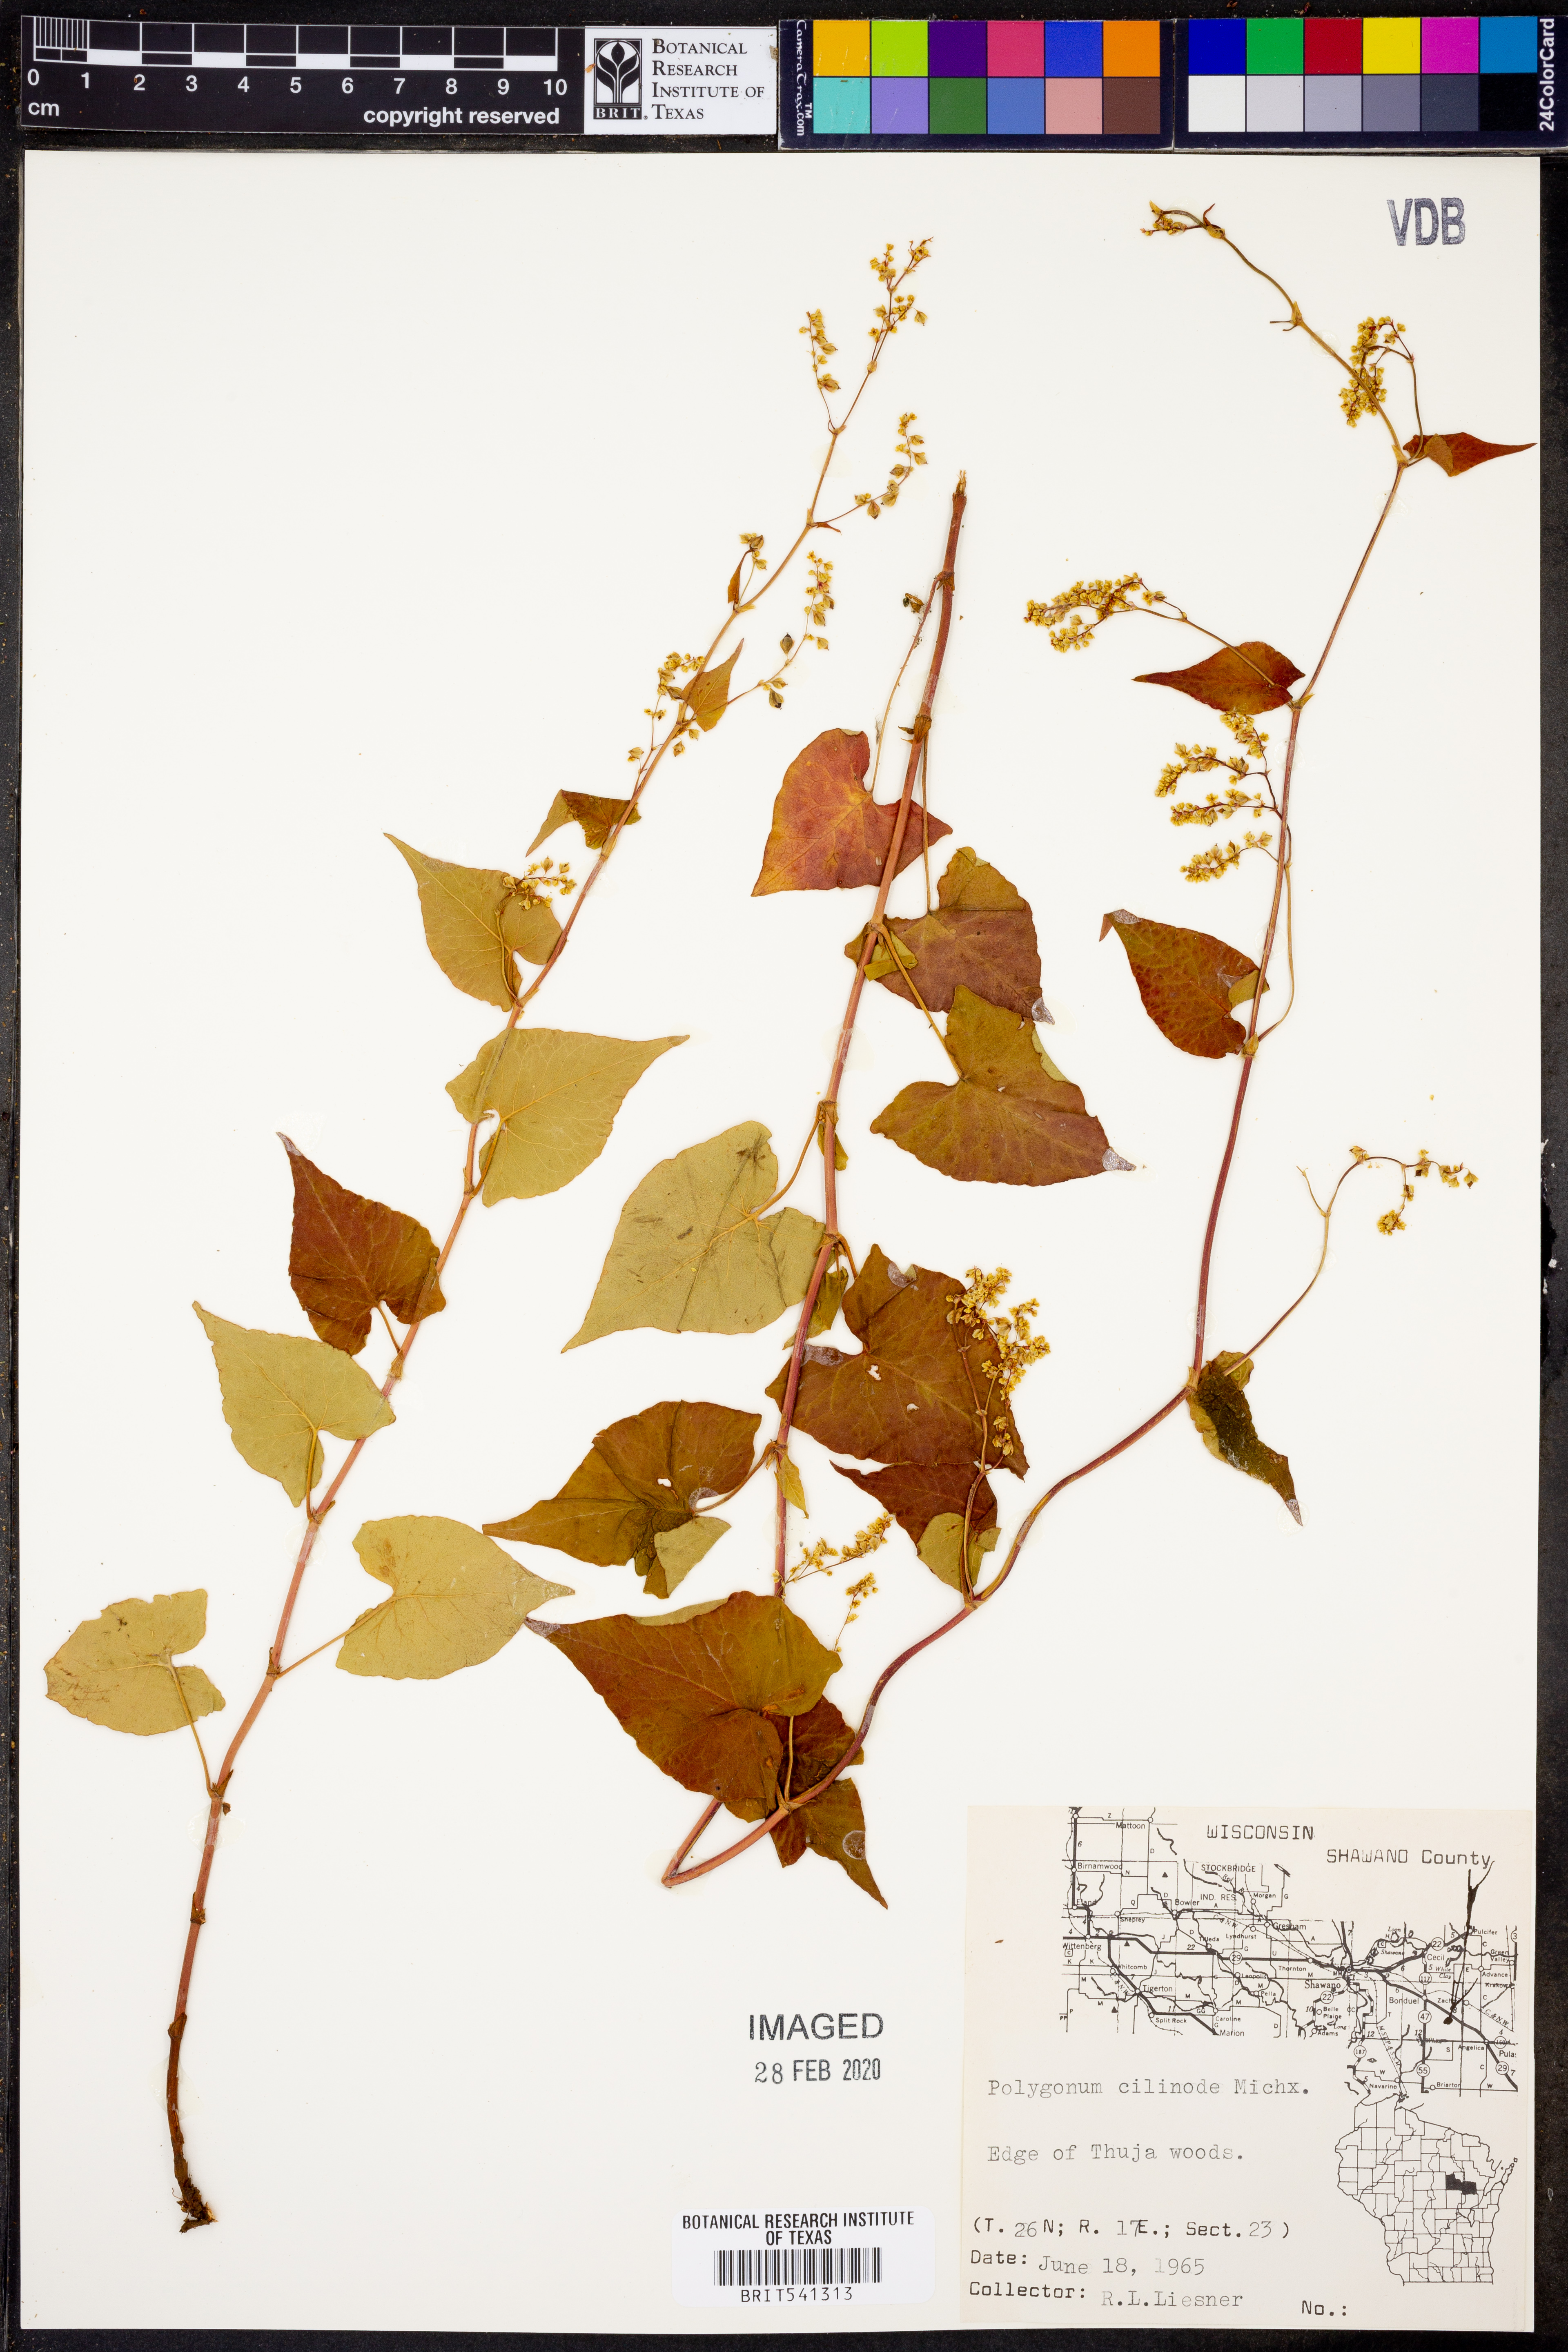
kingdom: Plantae
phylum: Tracheophyta
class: Magnoliopsida
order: Caryophyllales
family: Polygonaceae
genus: Parogonum
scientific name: Parogonum ciliinode
